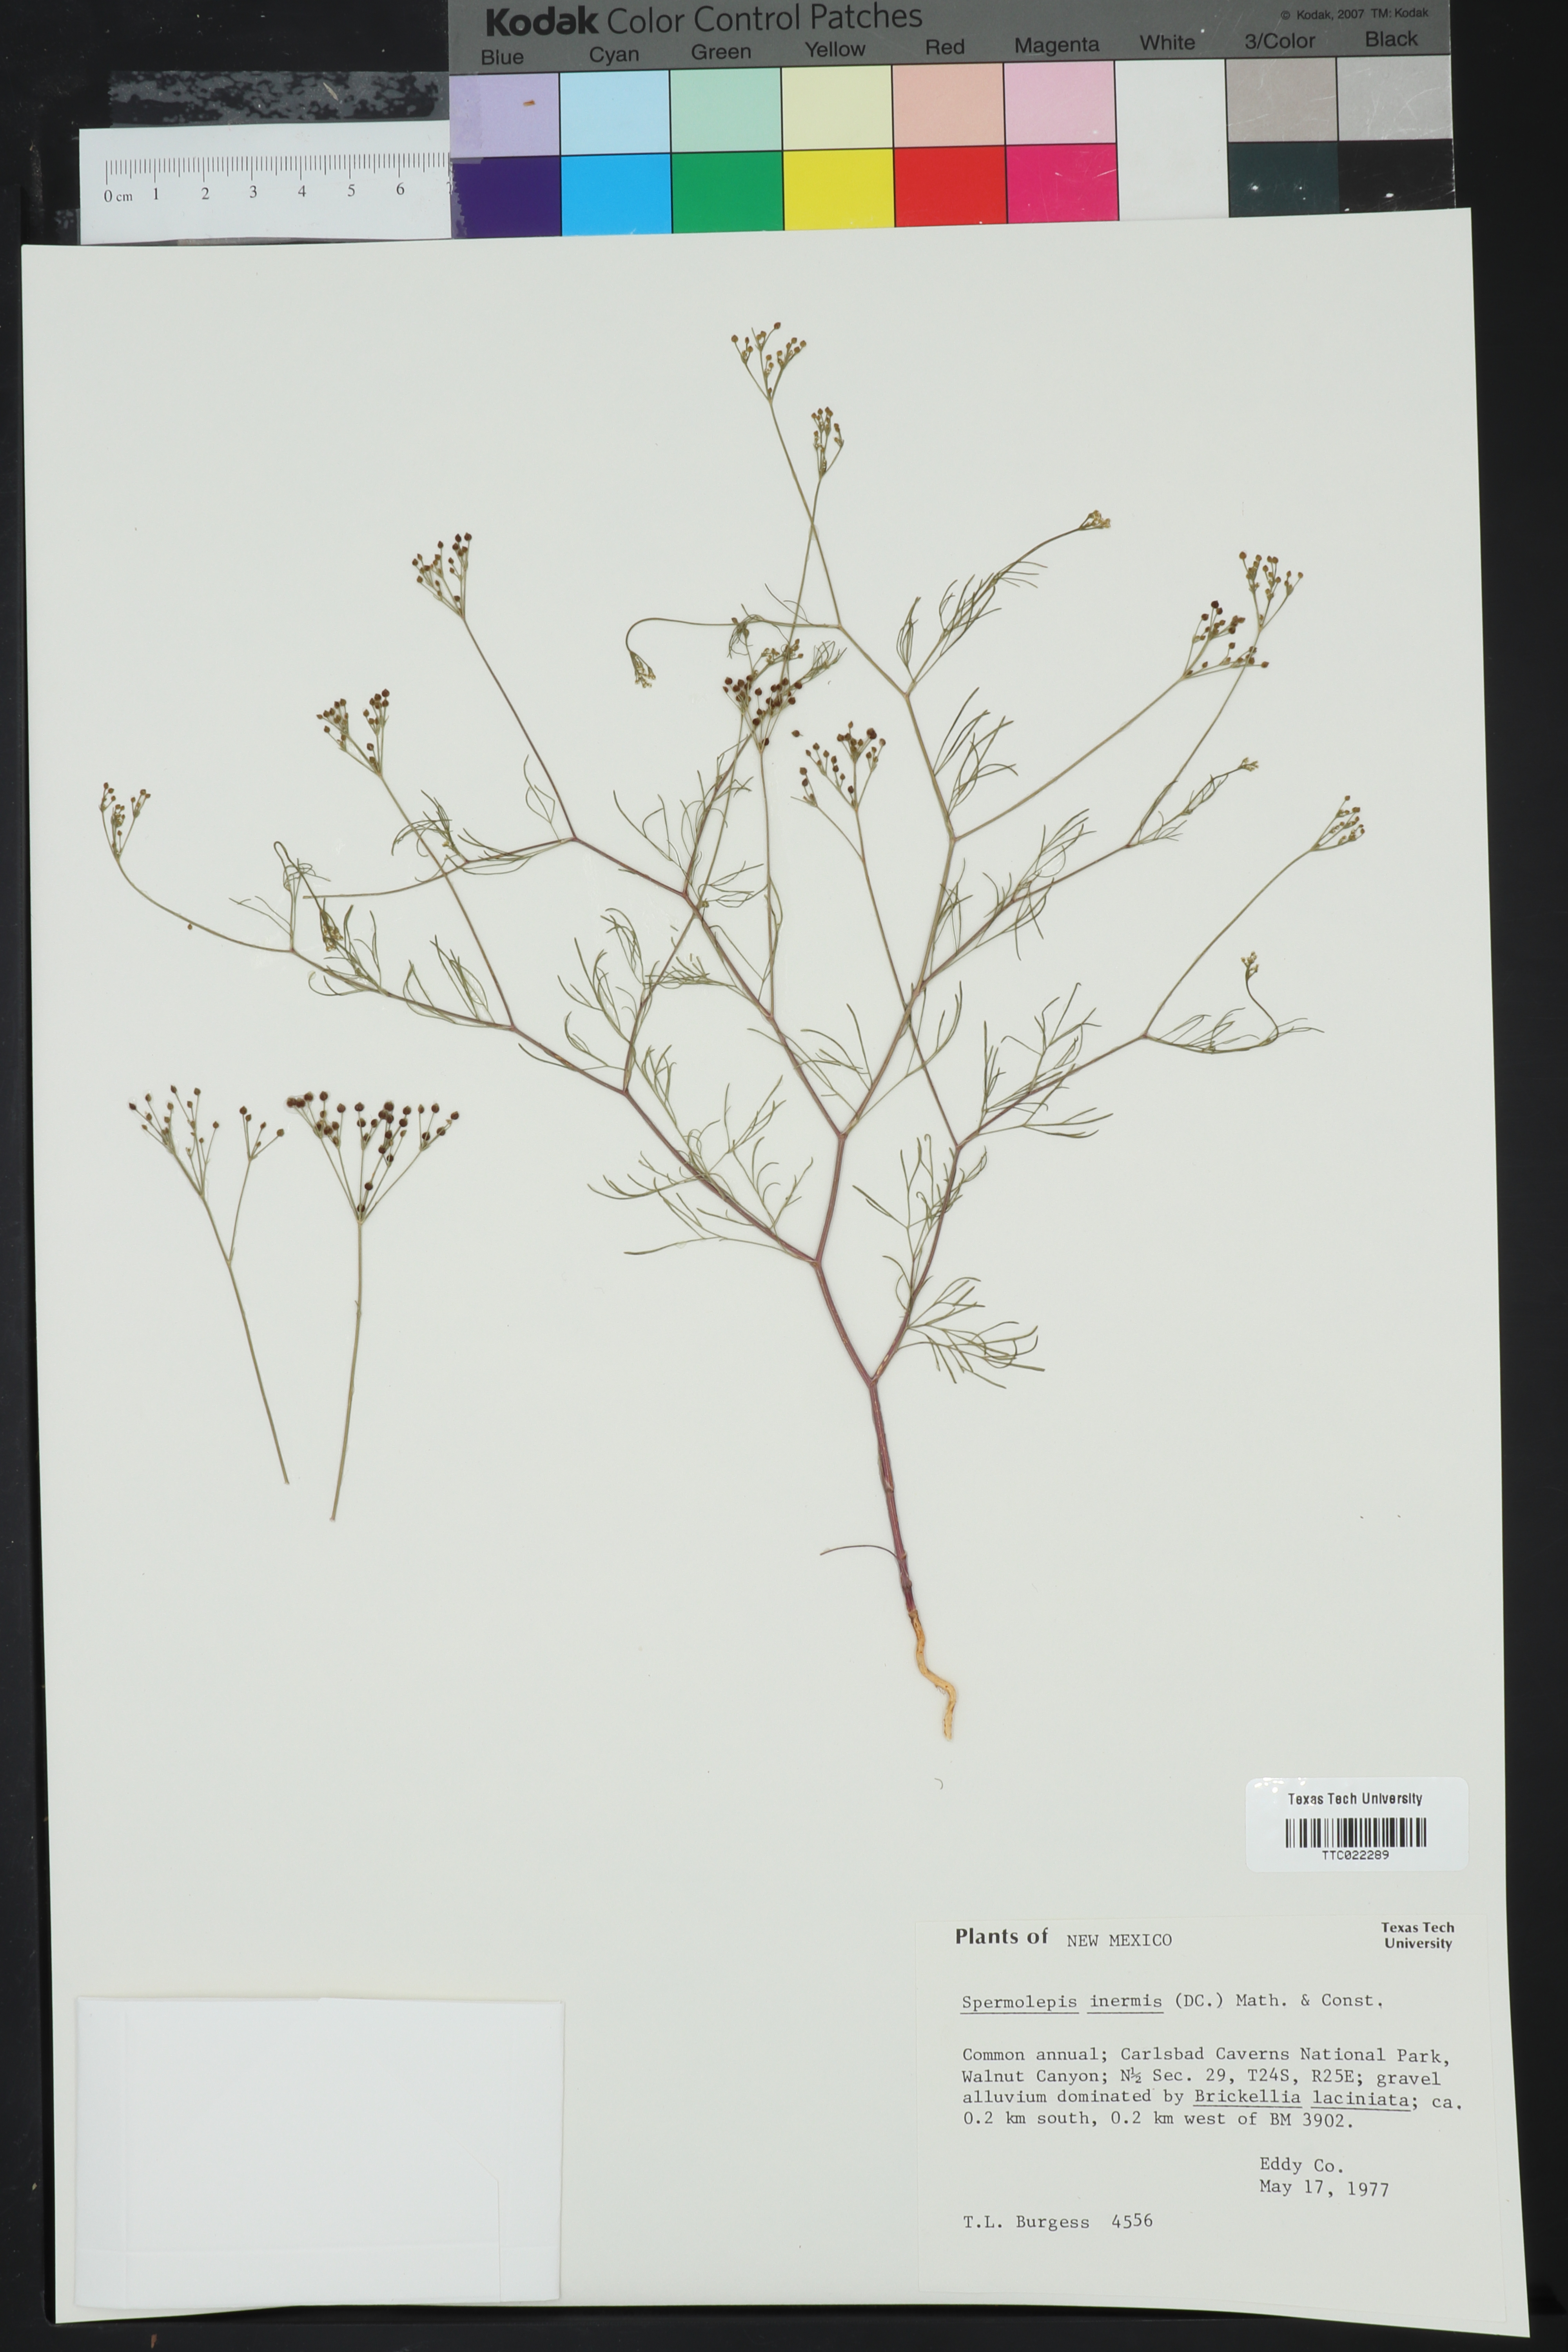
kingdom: Plantae
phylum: Tracheophyta
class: Magnoliopsida
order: Apiales
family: Apiaceae
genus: Spermolepis
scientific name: Spermolepis inermis
